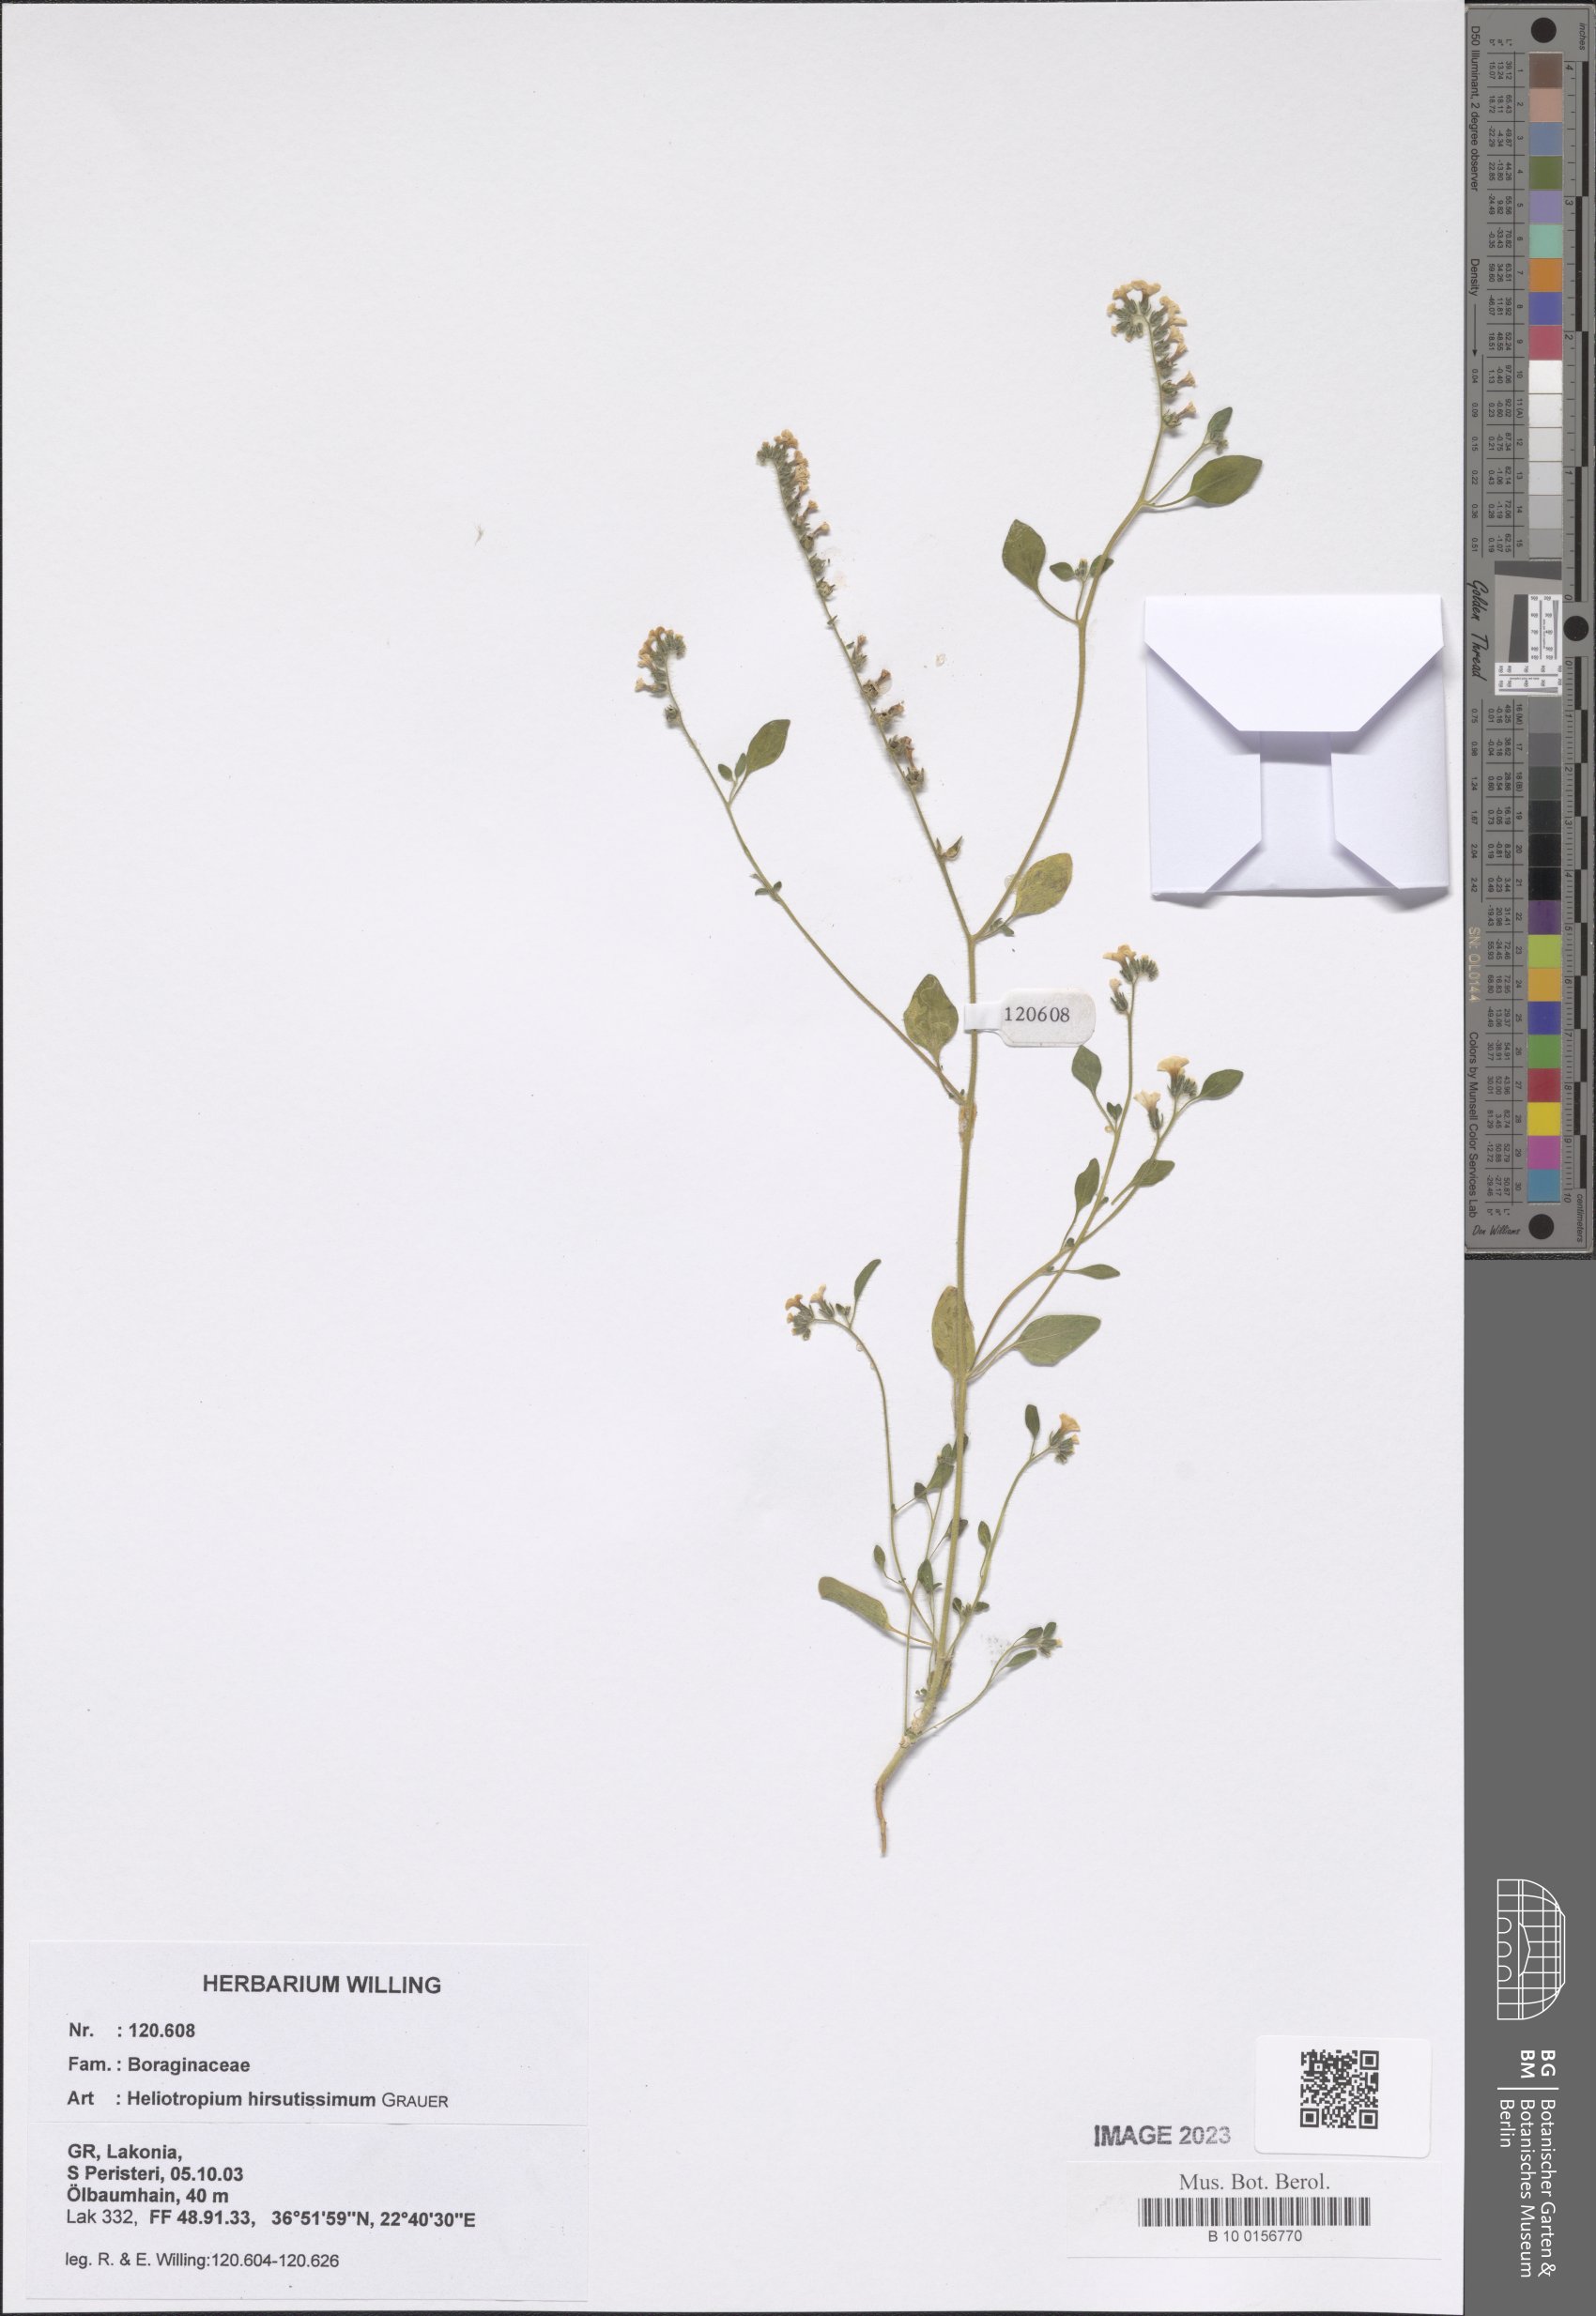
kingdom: Plantae
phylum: Tracheophyta
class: Magnoliopsida
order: Boraginales
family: Heliotropiaceae
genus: Heliotropium
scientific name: Heliotropium hirsutissimum
